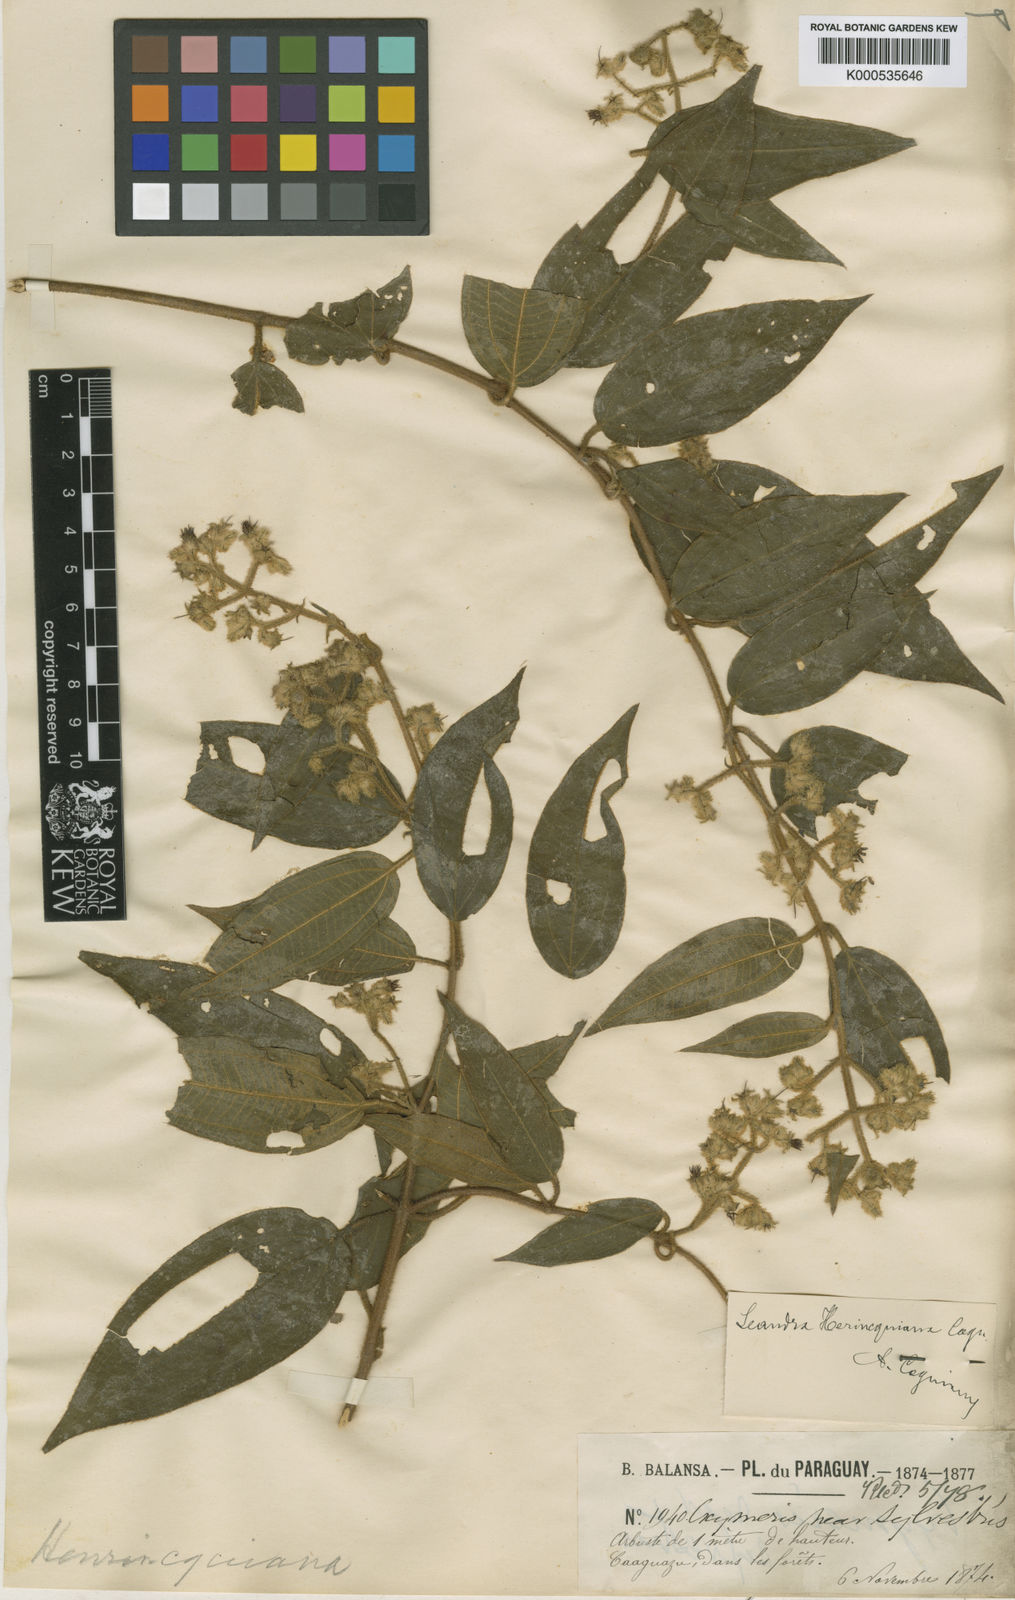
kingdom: Plantae
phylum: Tracheophyta
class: Magnoliopsida
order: Myrtales
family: Melastomataceae
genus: Miconia
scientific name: Miconia herincquiana
